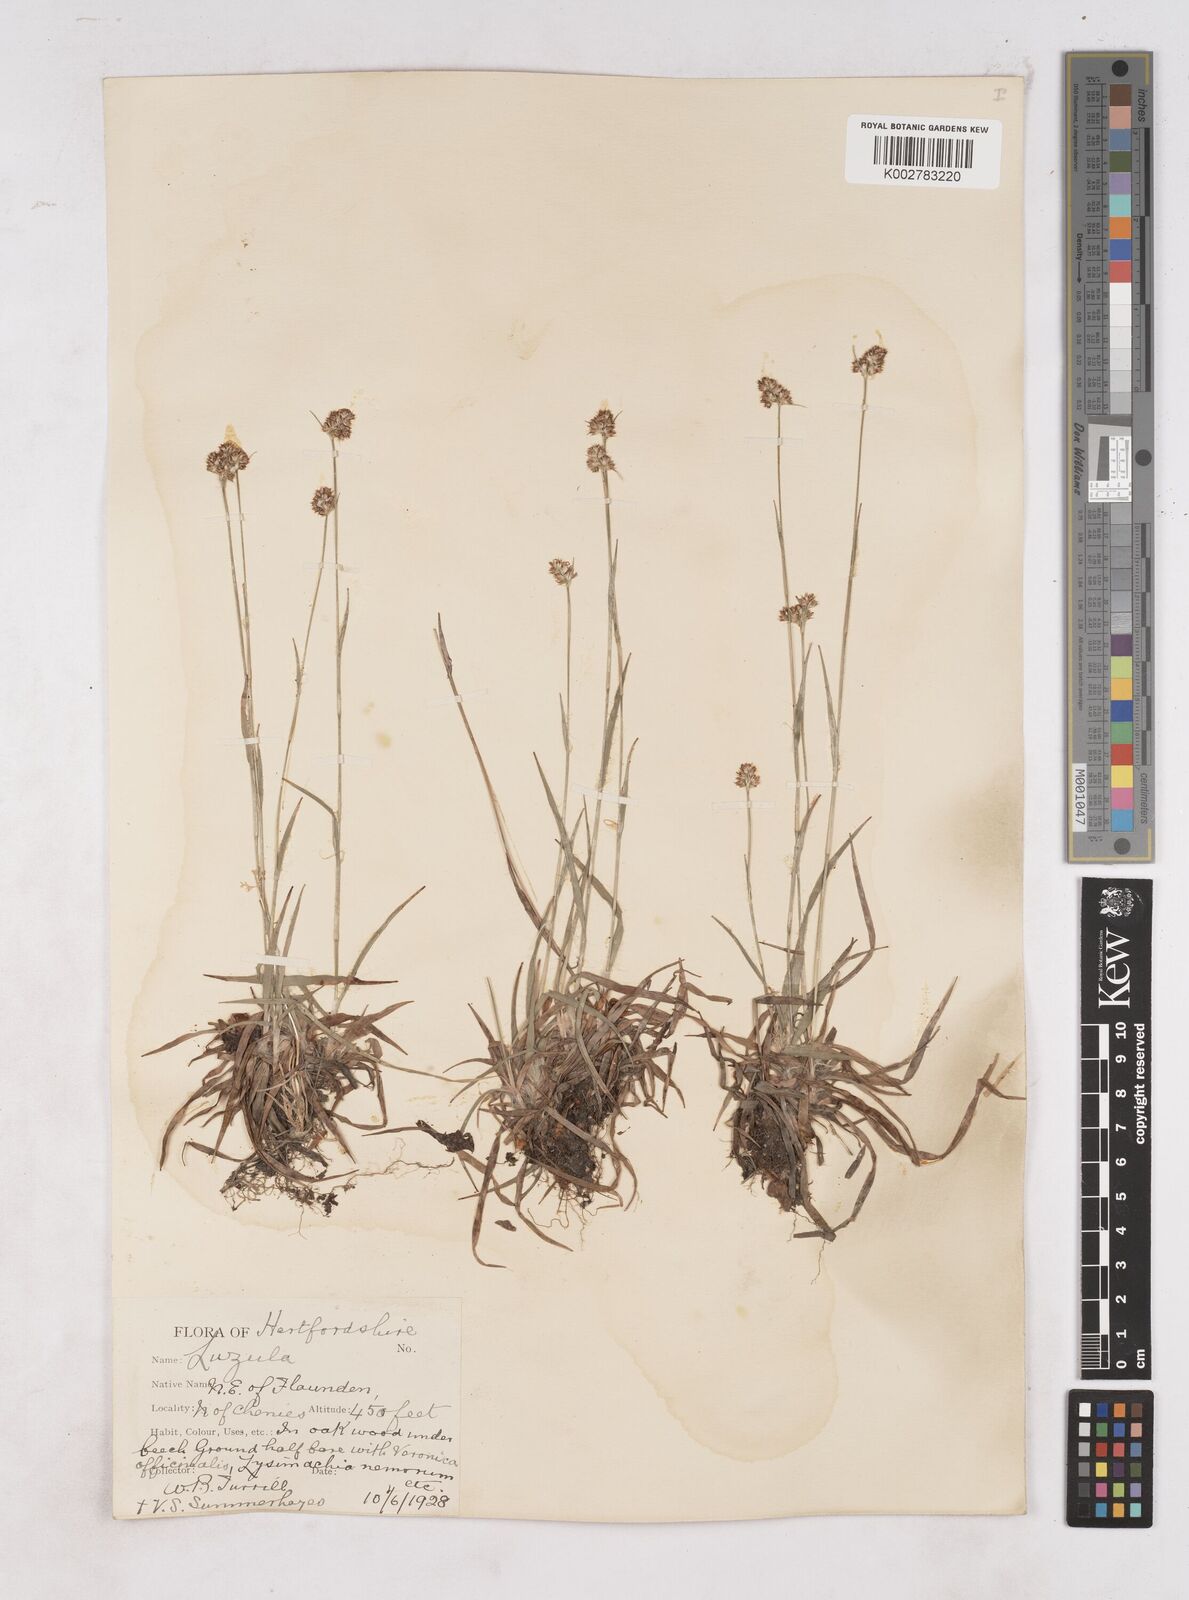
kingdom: Plantae
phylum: Tracheophyta
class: Liliopsida
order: Poales
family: Juncaceae
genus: Luzula
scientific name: Luzula multiflora
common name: Heath wood-rush
